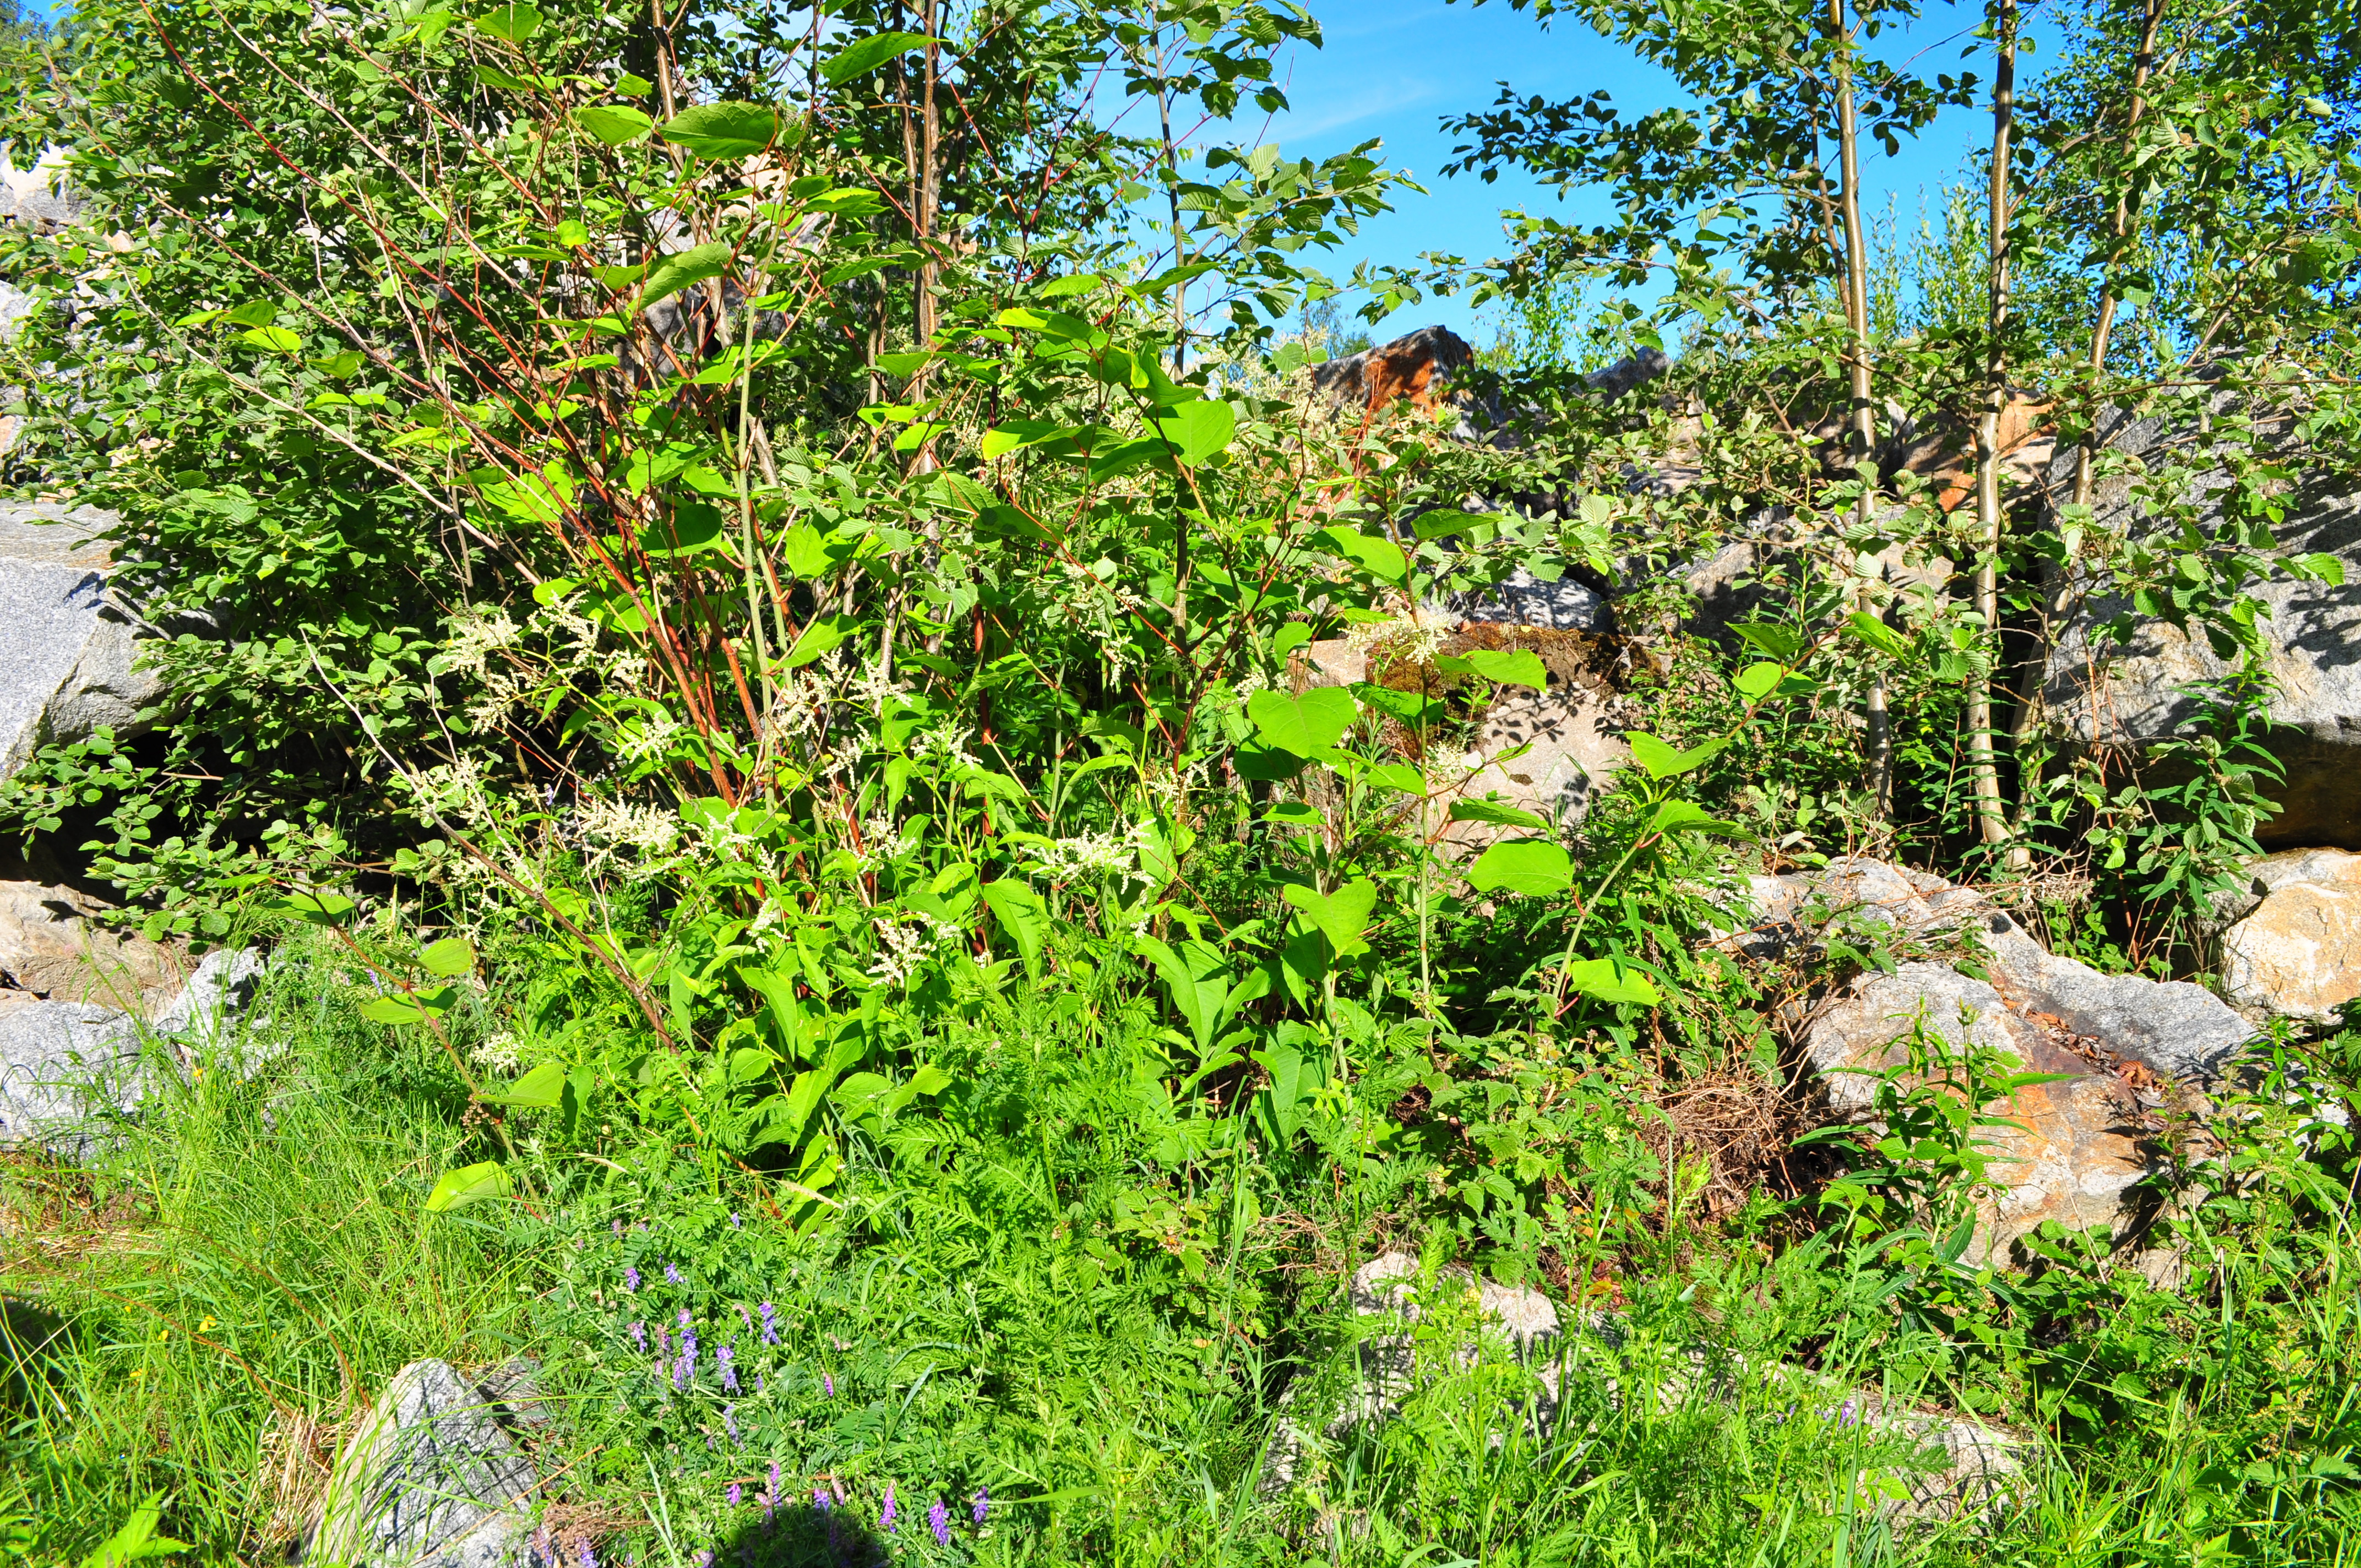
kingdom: Plantae
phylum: Tracheophyta
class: Magnoliopsida
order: Caryophyllales
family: Polygonaceae
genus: Reynoutria
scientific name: Reynoutria japonica
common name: Japanese knotweed
